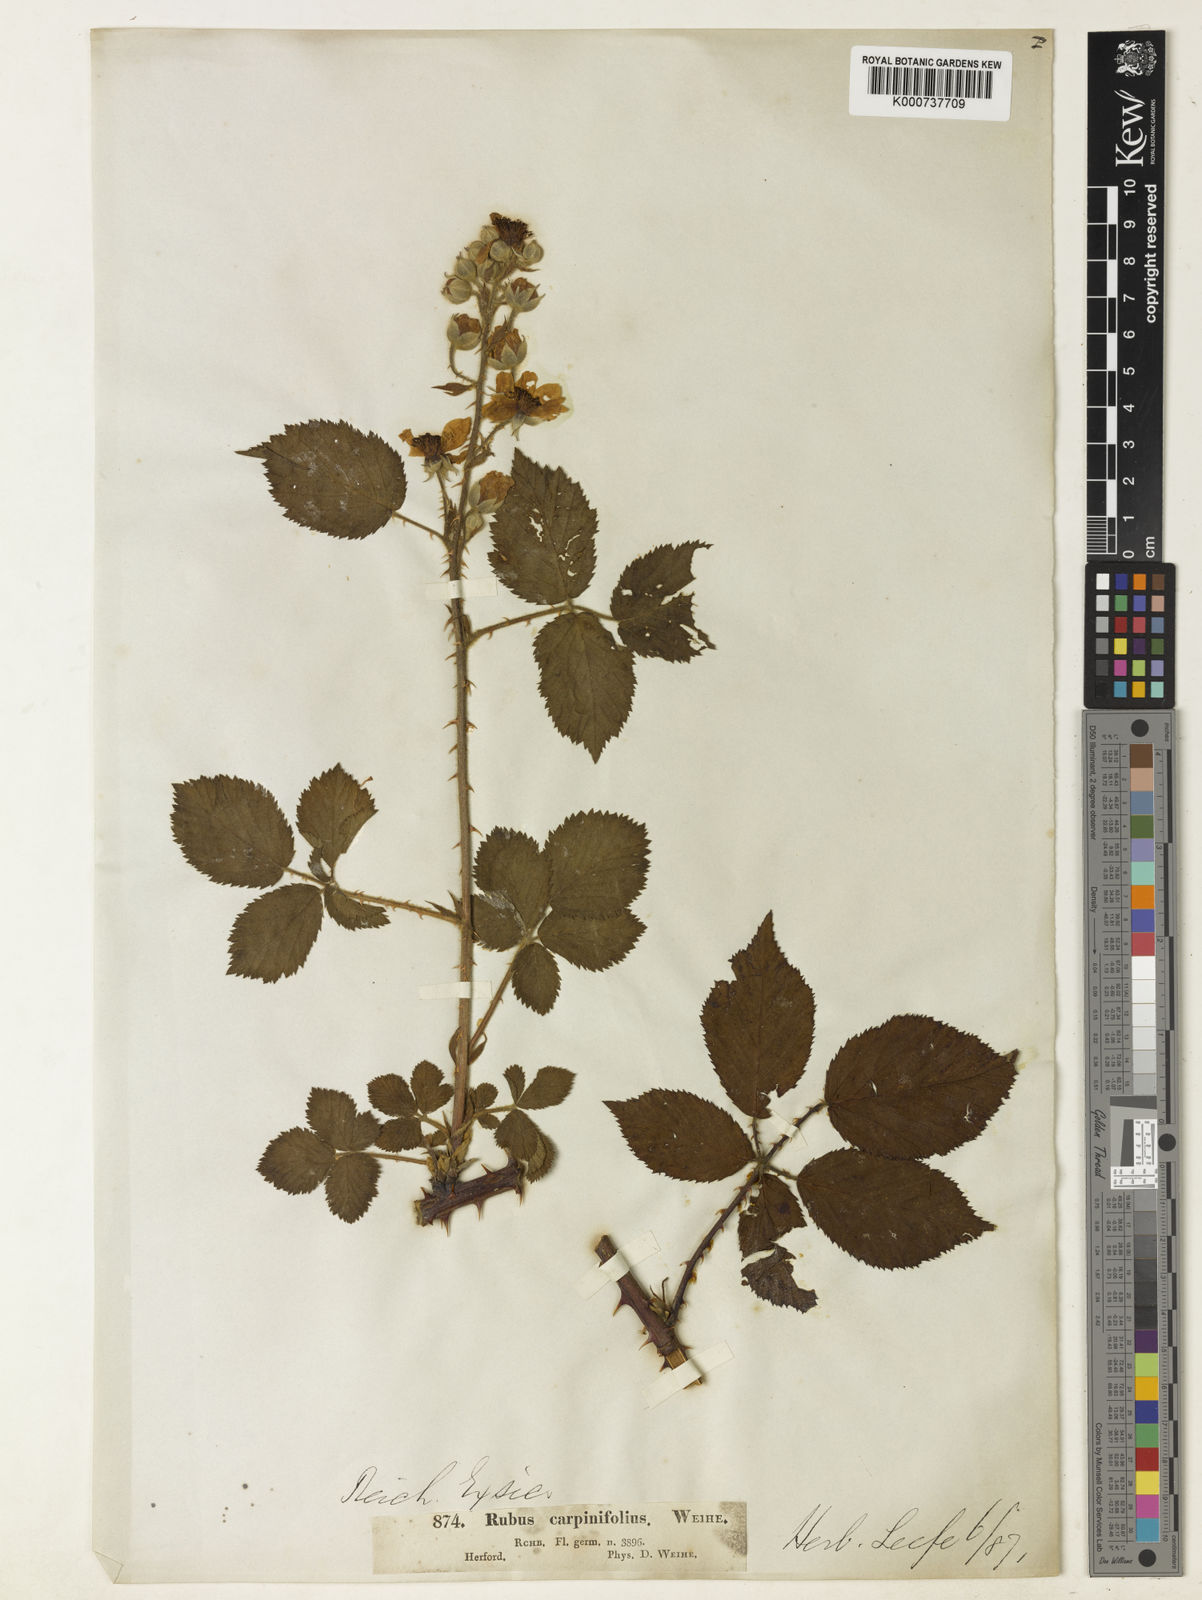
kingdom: Plantae
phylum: Tracheophyta
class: Magnoliopsida
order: Rosales
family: Rosaceae
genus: Rubus
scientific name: Rubus adspersus
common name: Hornbeam-leaved bramble
